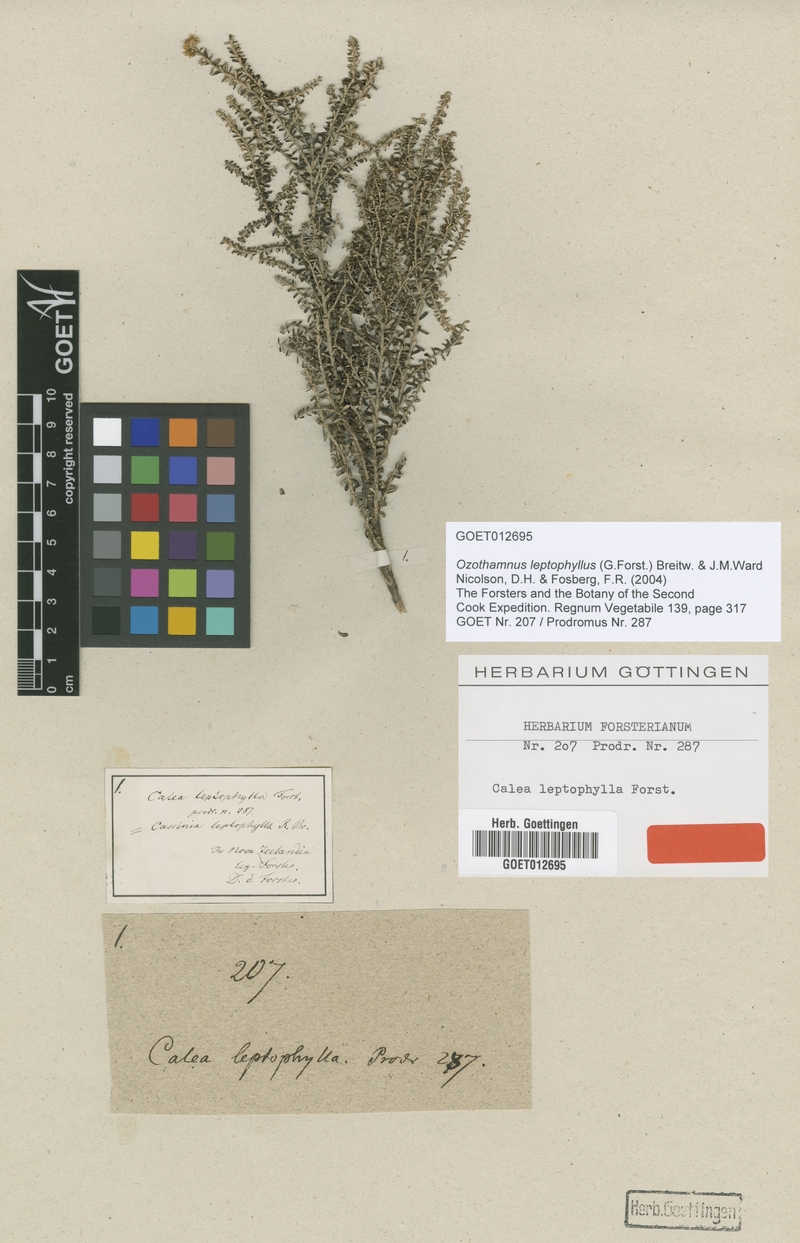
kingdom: Plantae
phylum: Tracheophyta
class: Magnoliopsida
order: Asterales
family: Asteraceae
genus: Ozothamnus
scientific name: Ozothamnus leptophyllus
